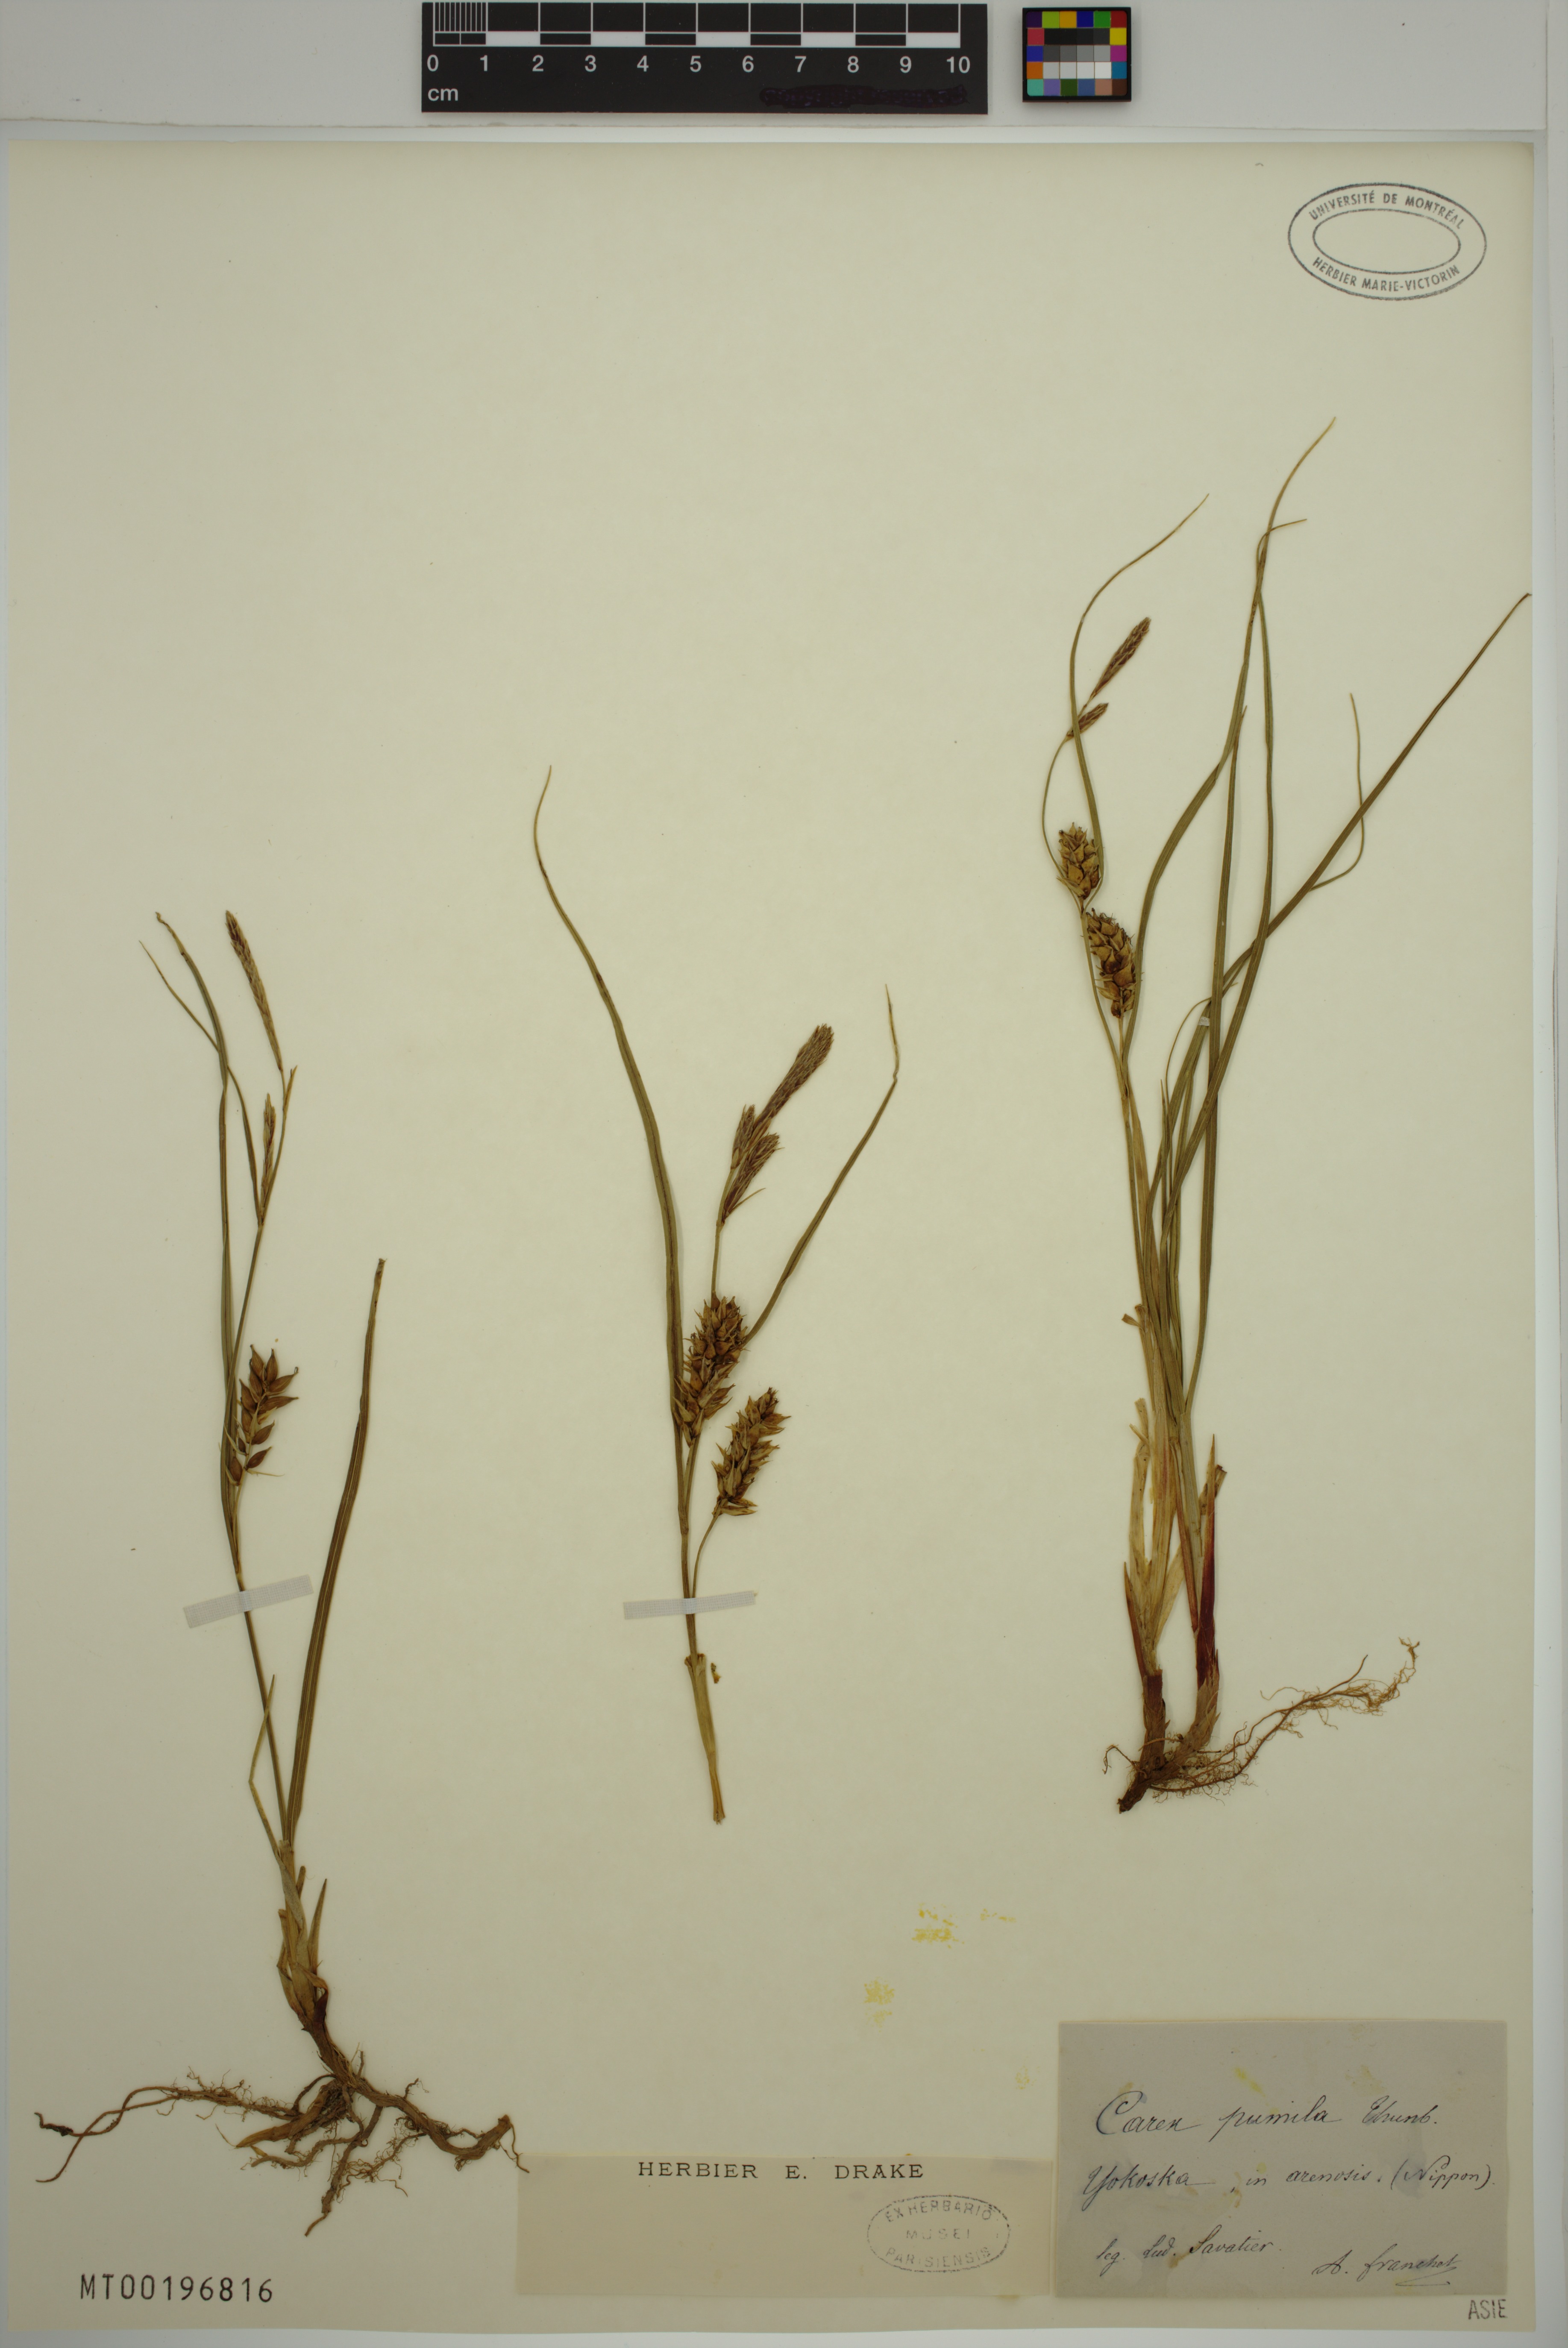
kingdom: Plantae
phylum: Tracheophyta
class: Liliopsida
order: Poales
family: Cyperaceae
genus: Carex
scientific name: Carex pumila
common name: Dwarf sedge
